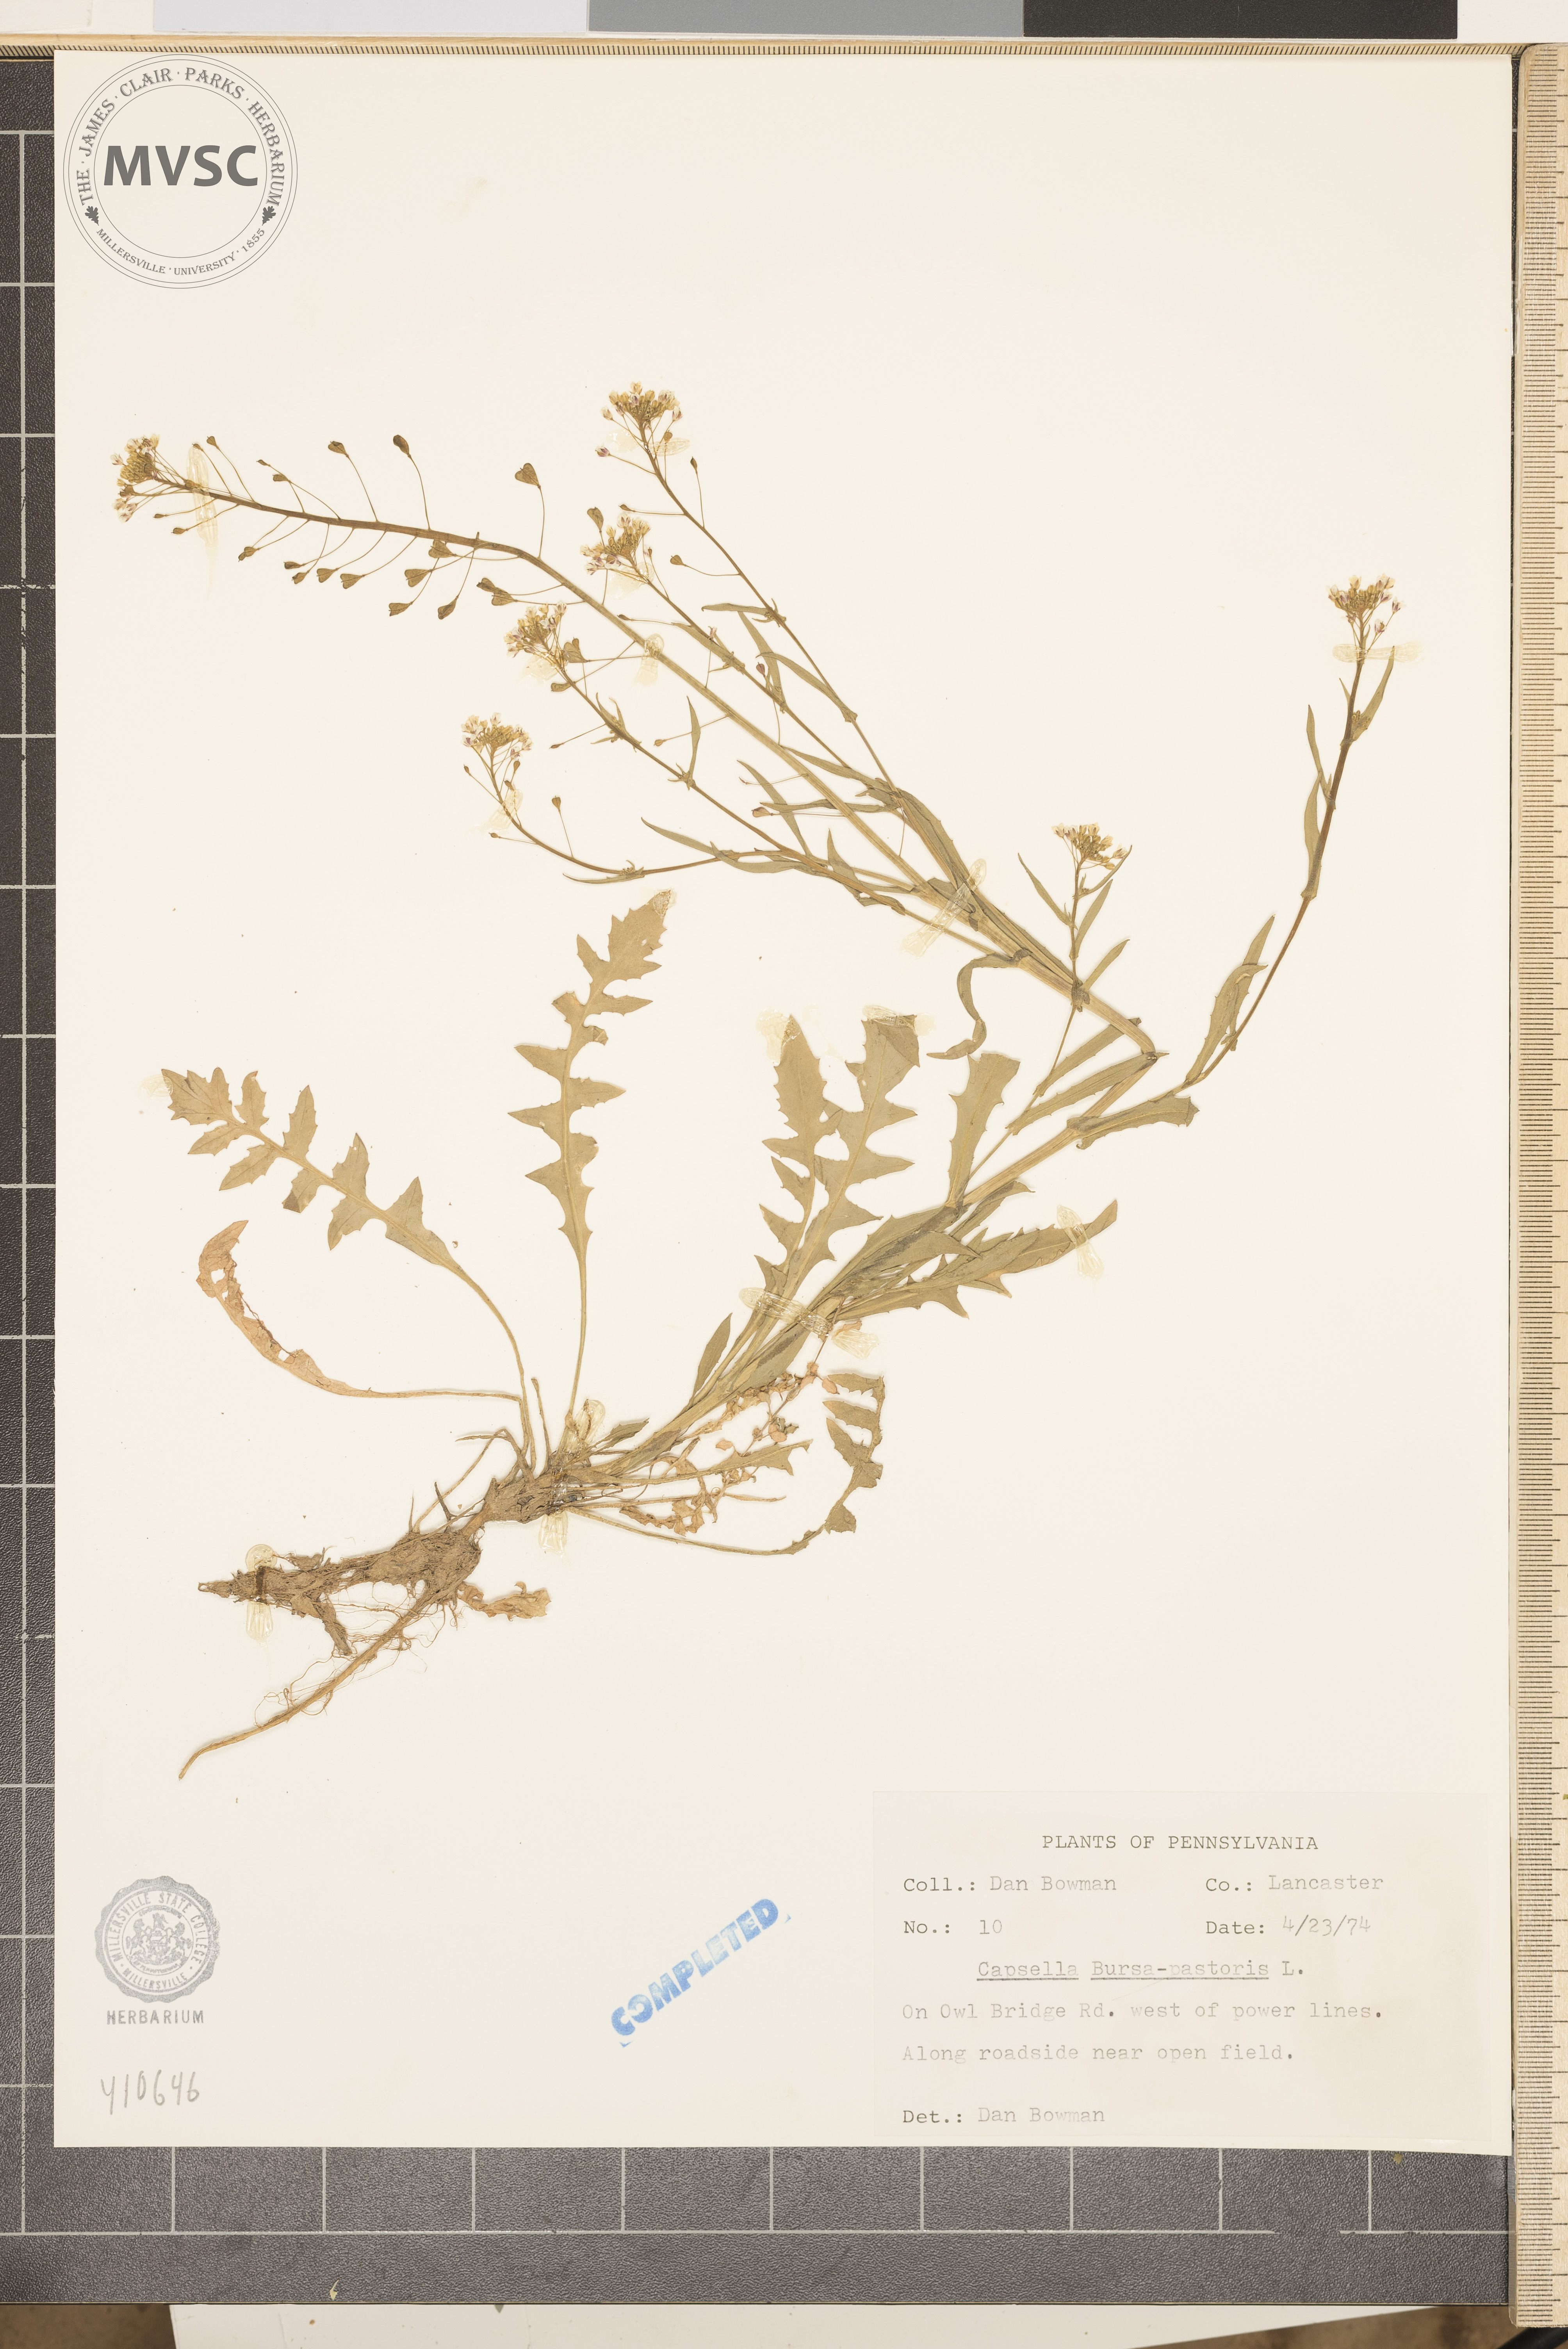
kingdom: Plantae
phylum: Tracheophyta
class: Magnoliopsida
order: Brassicales
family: Brassicaceae
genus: Capsella
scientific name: Capsella bursa-pastoris
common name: Shepherd's purse
